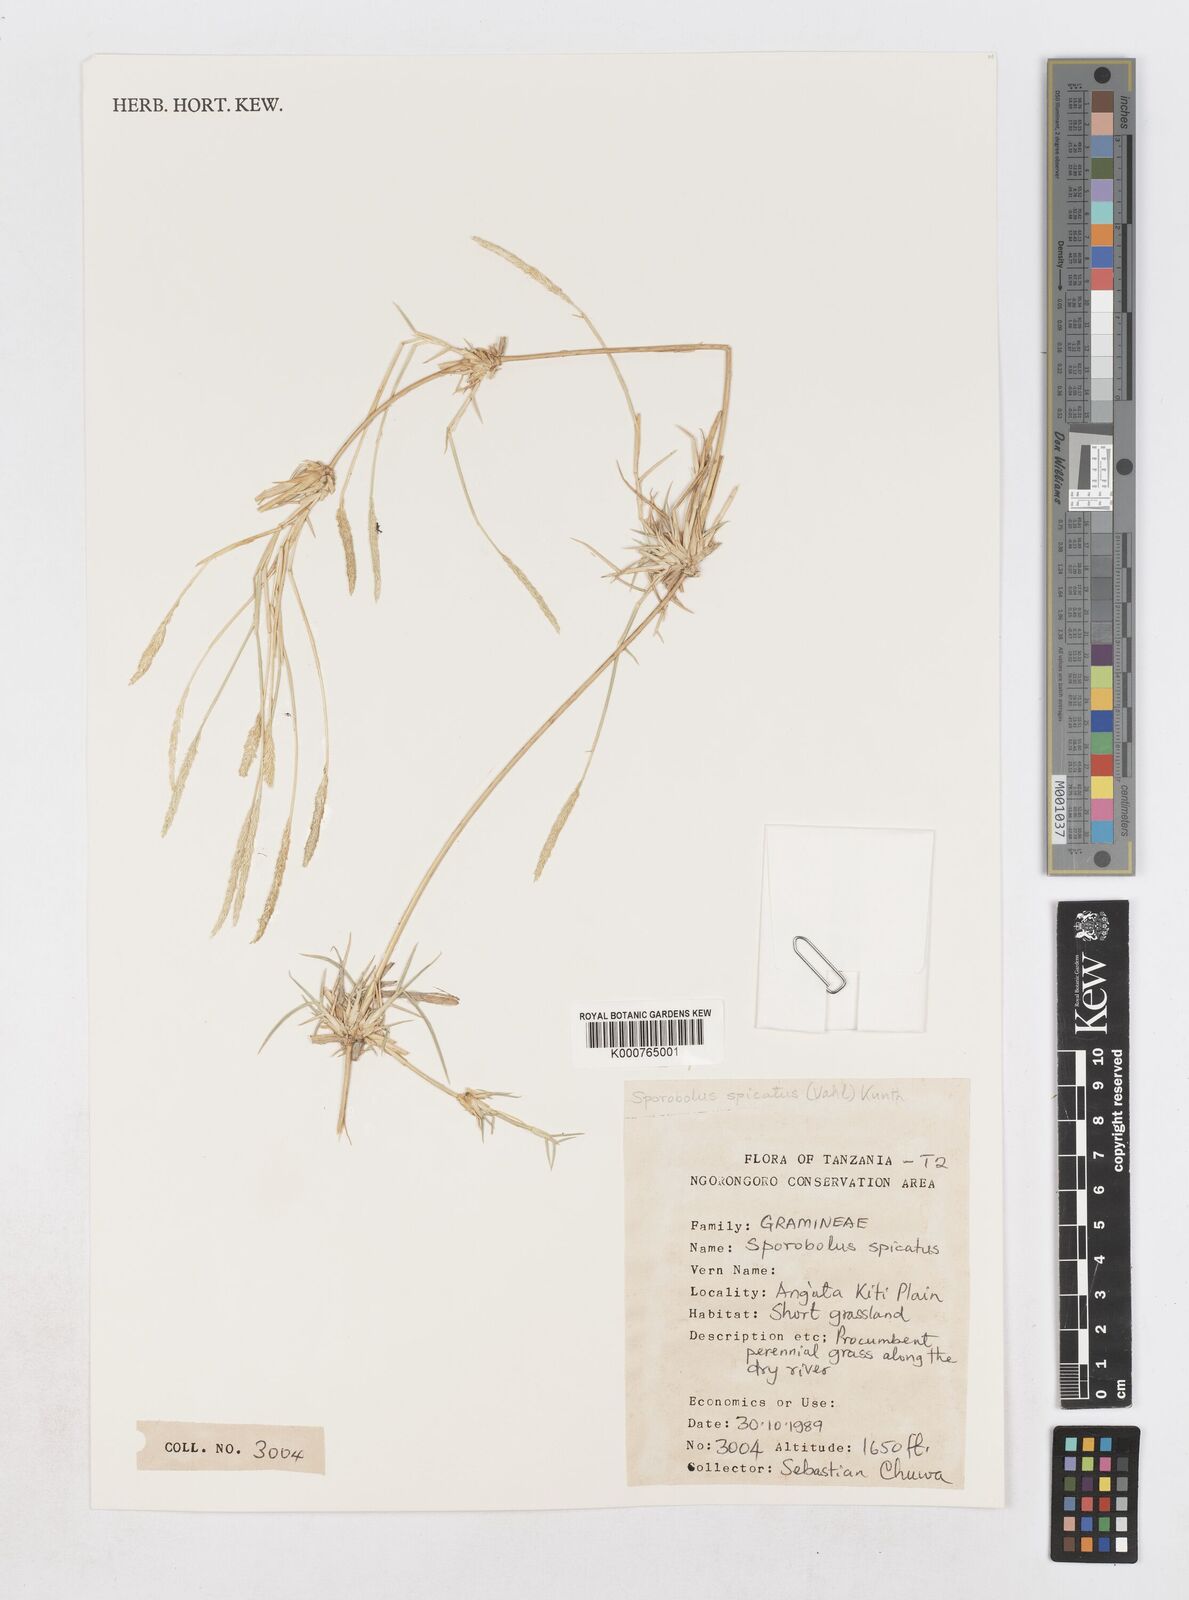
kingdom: Plantae
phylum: Tracheophyta
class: Liliopsida
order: Poales
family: Poaceae
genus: Sporobolus
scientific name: Sporobolus spicatus
